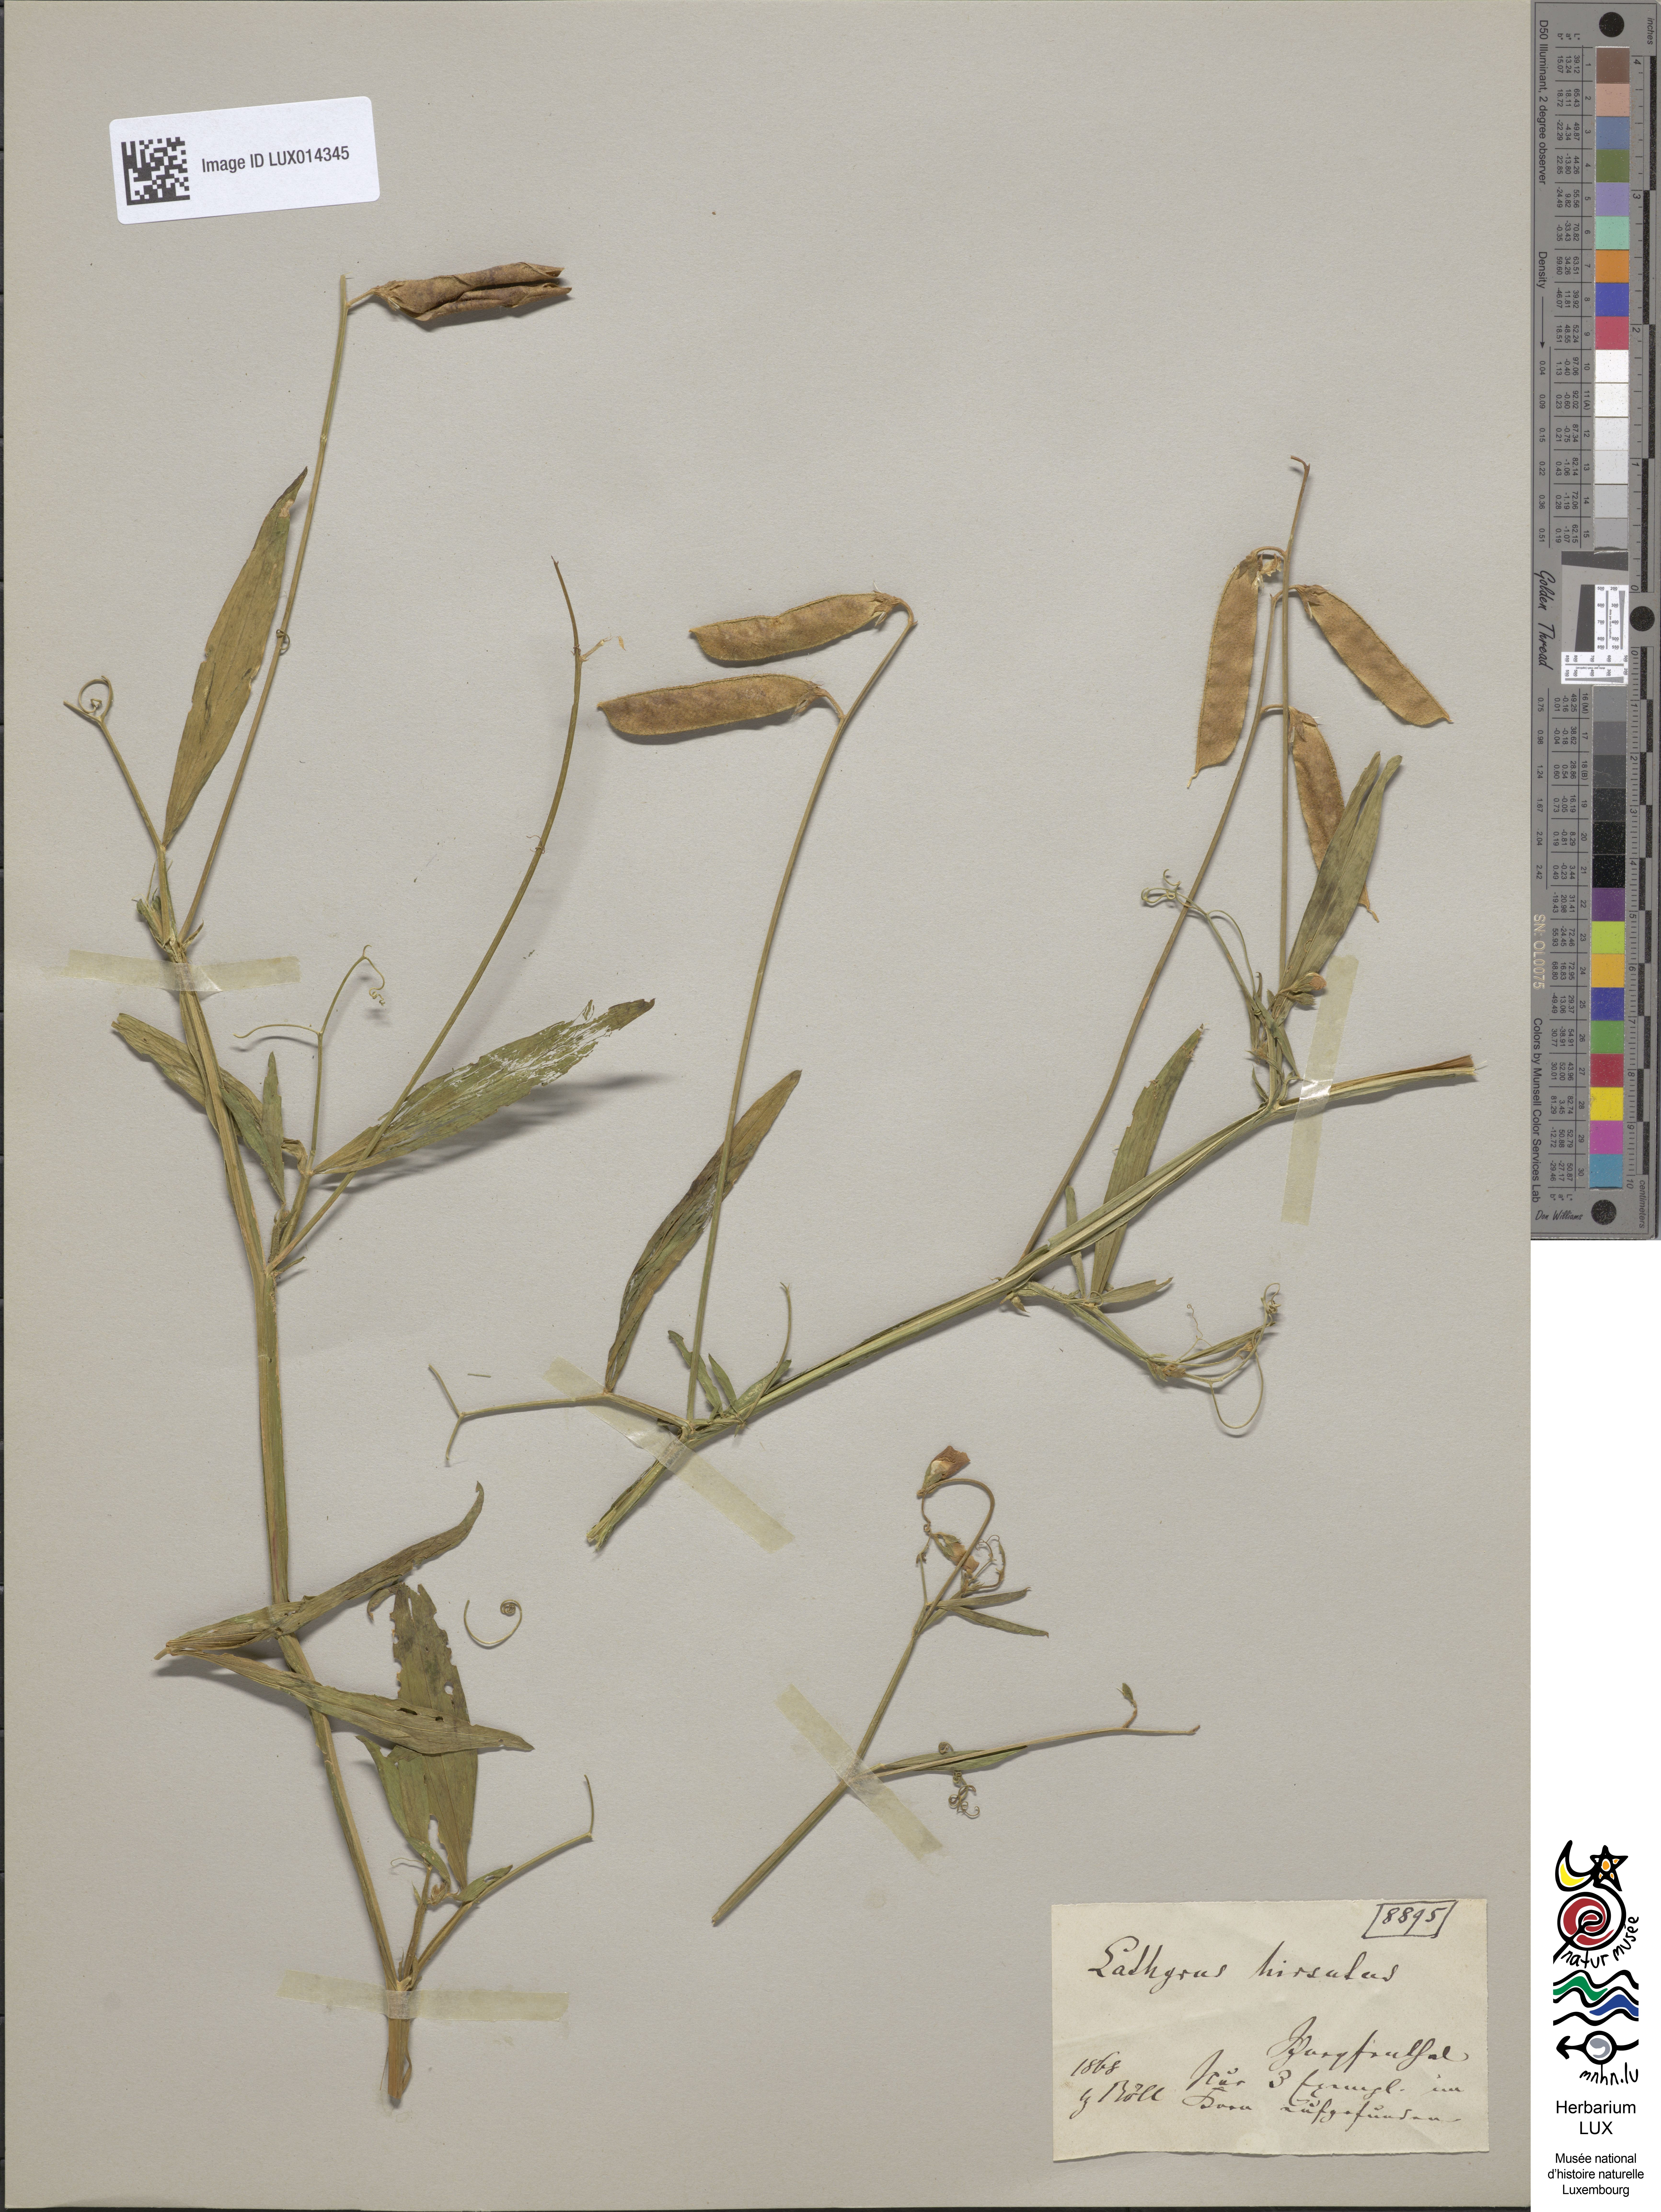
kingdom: Plantae
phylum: Tracheophyta
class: Magnoliopsida
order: Fabales
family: Fabaceae
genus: Lathyrus
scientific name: Lathyrus hirsutus
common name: Hairy vetchling
